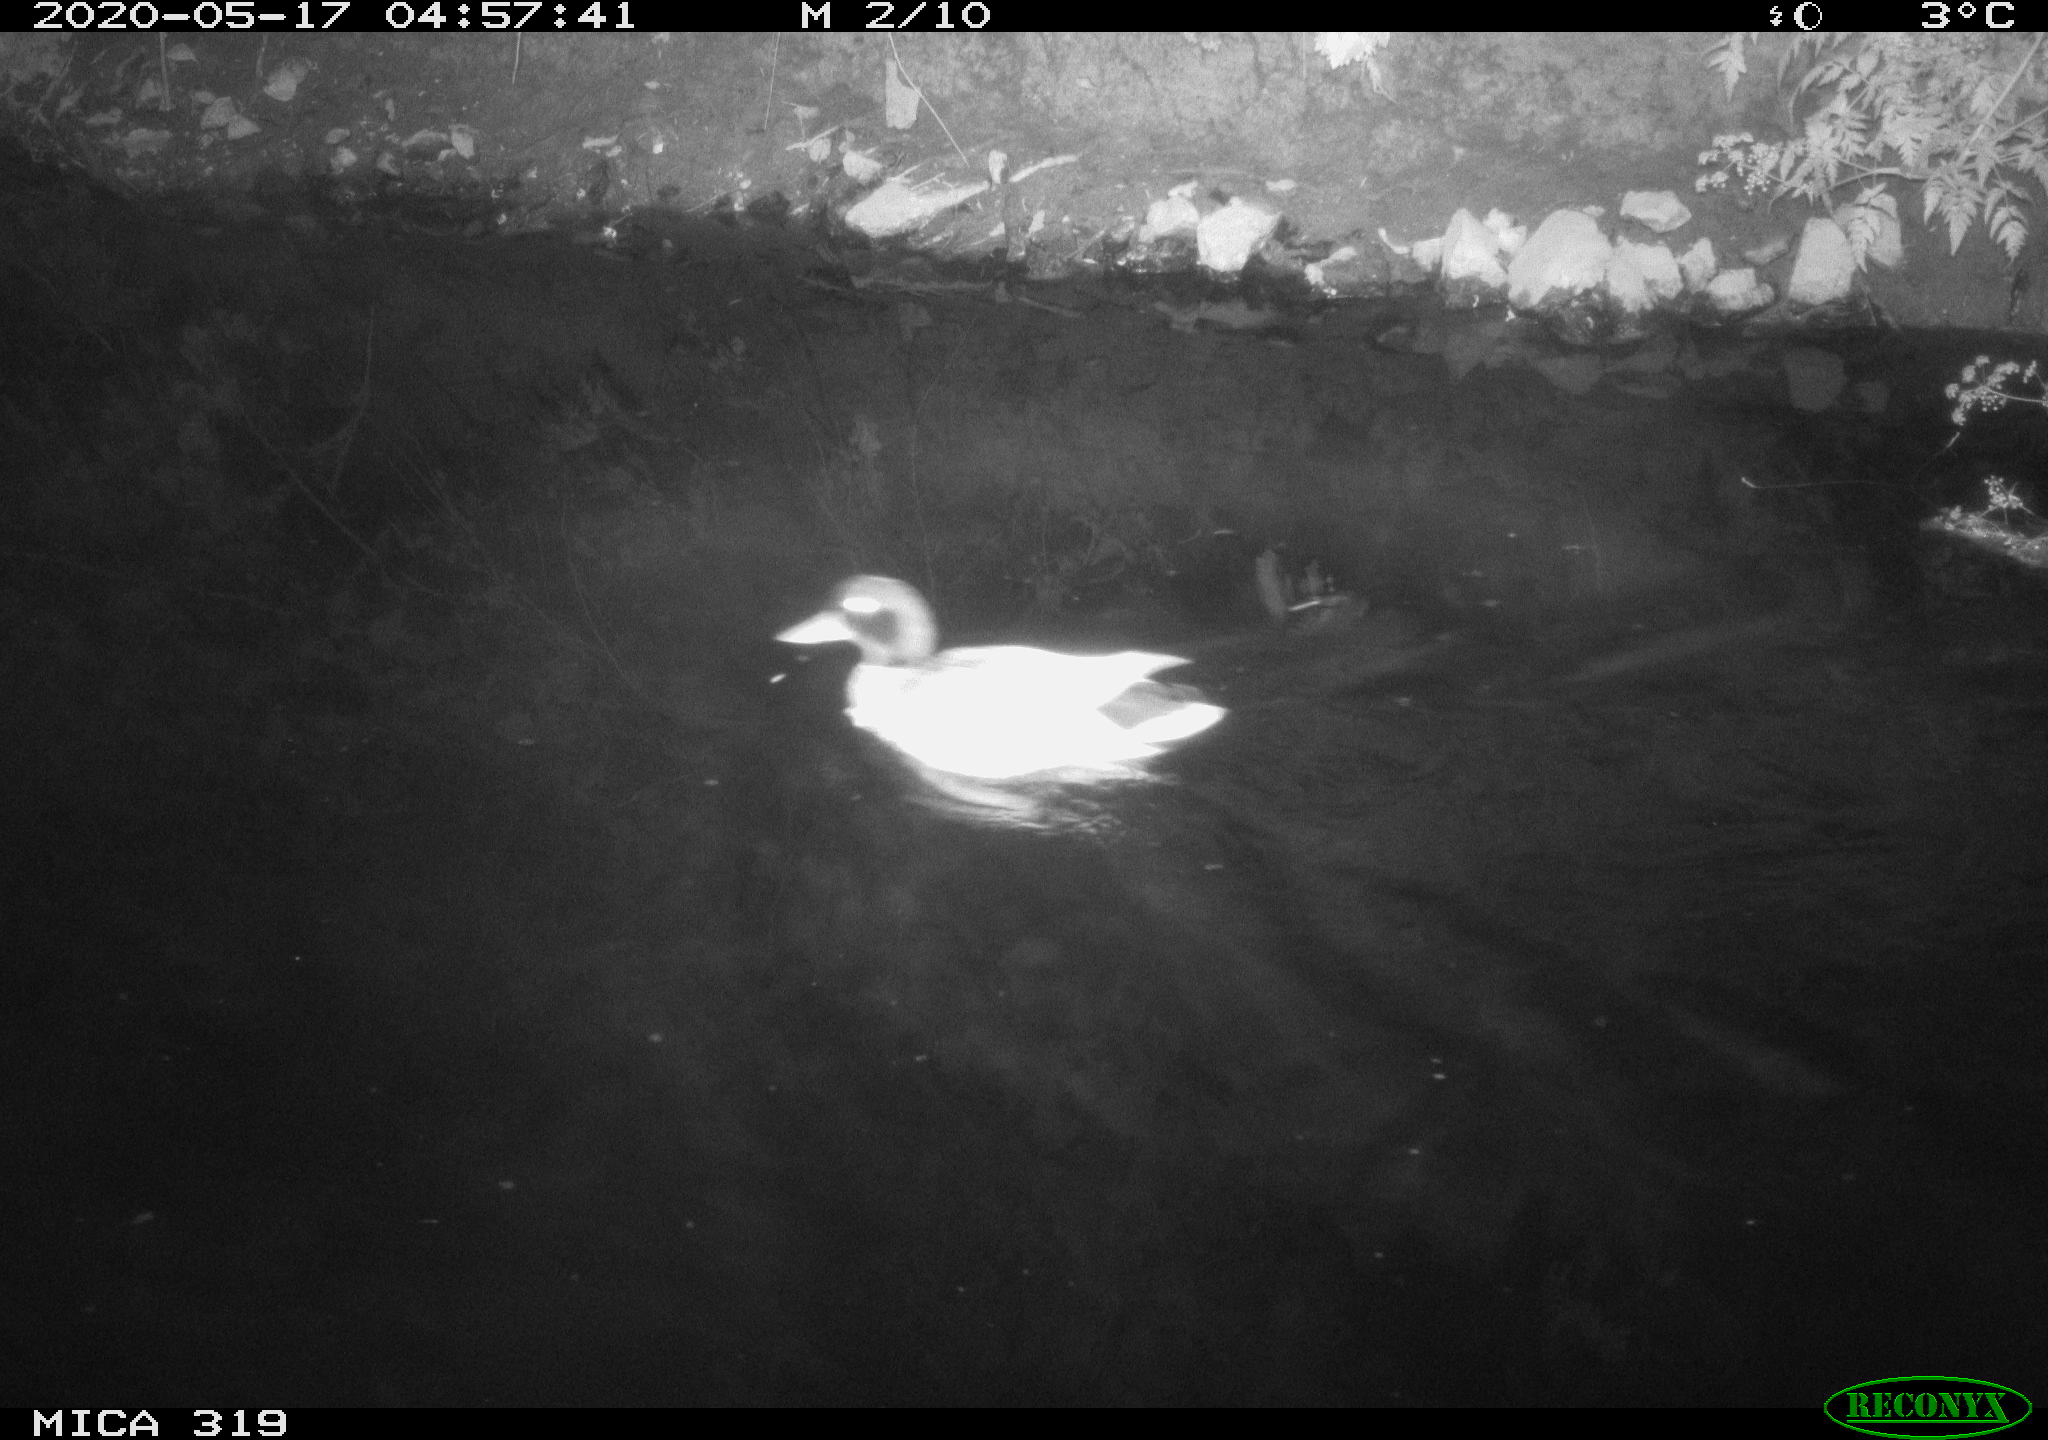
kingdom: Animalia
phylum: Chordata
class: Aves
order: Anseriformes
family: Anatidae
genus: Anas
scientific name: Anas platyrhynchos
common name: Mallard
